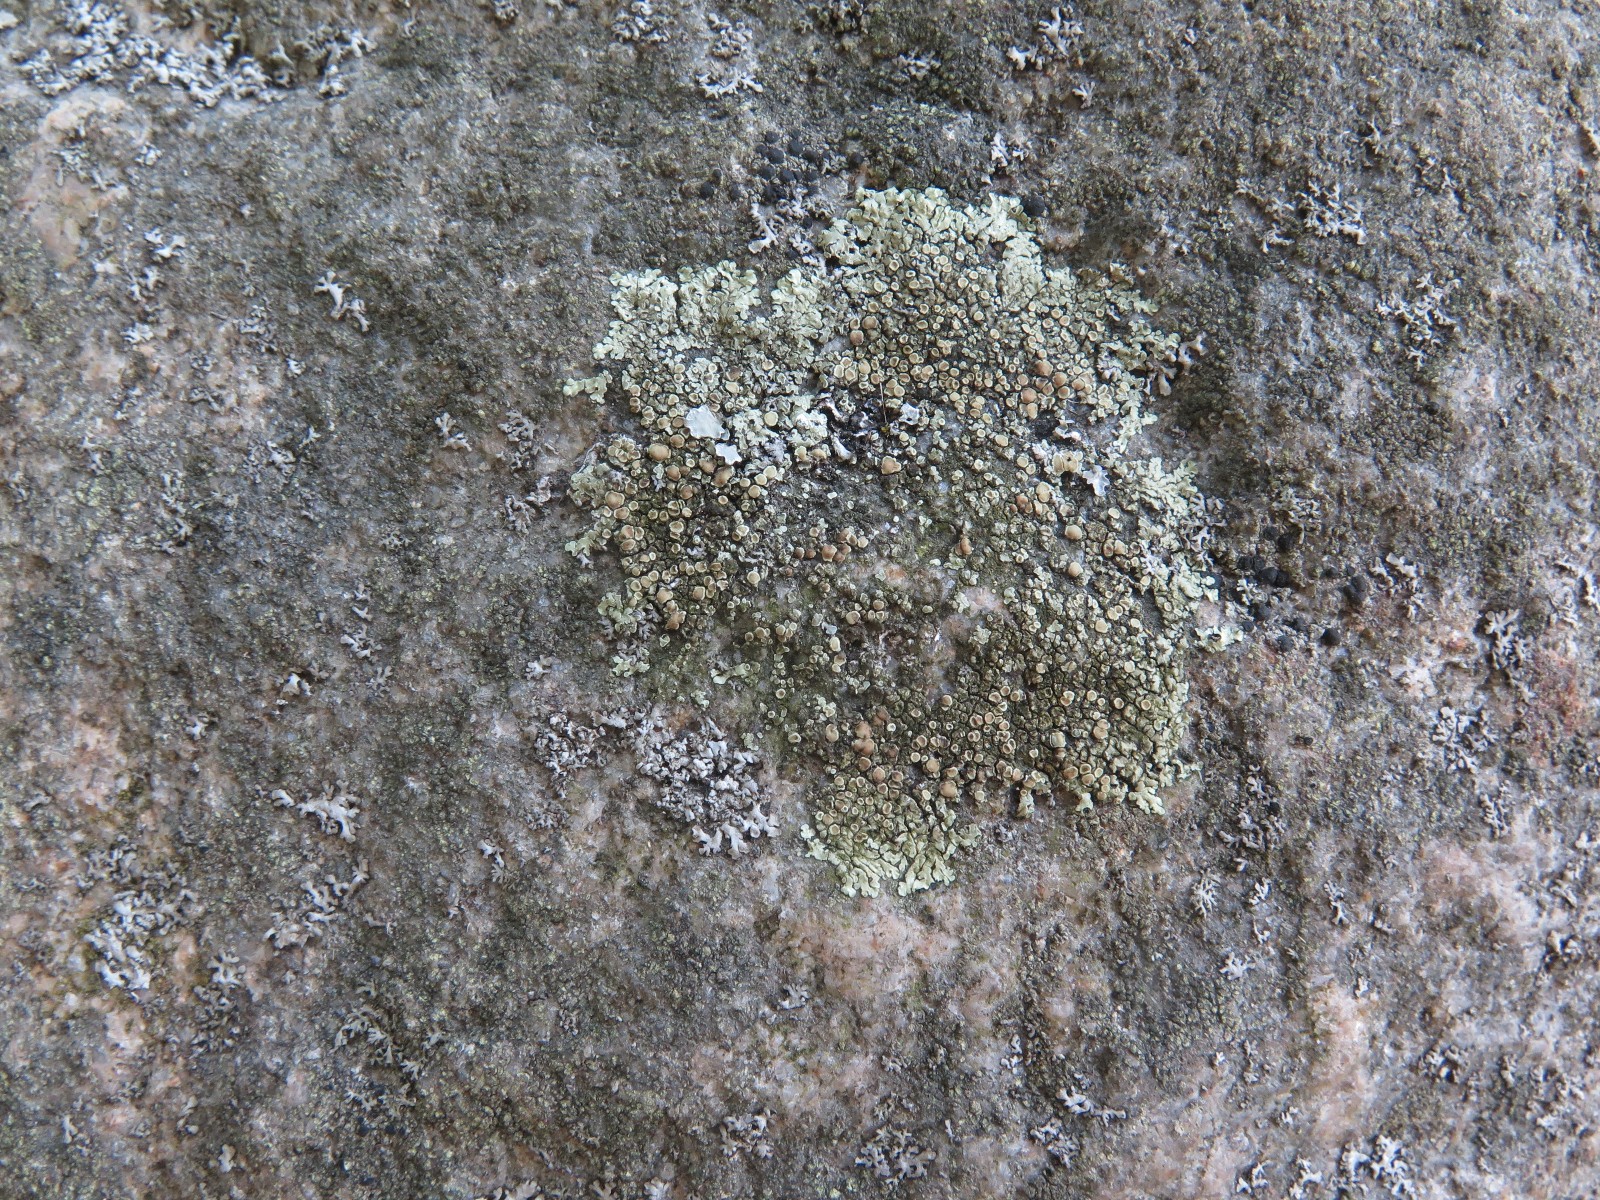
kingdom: Fungi
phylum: Ascomycota
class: Lecanoromycetes
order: Lecanorales
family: Lecanoraceae
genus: Protoparmeliopsis
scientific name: Protoparmeliopsis muralis
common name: randfliget kantskivelav
